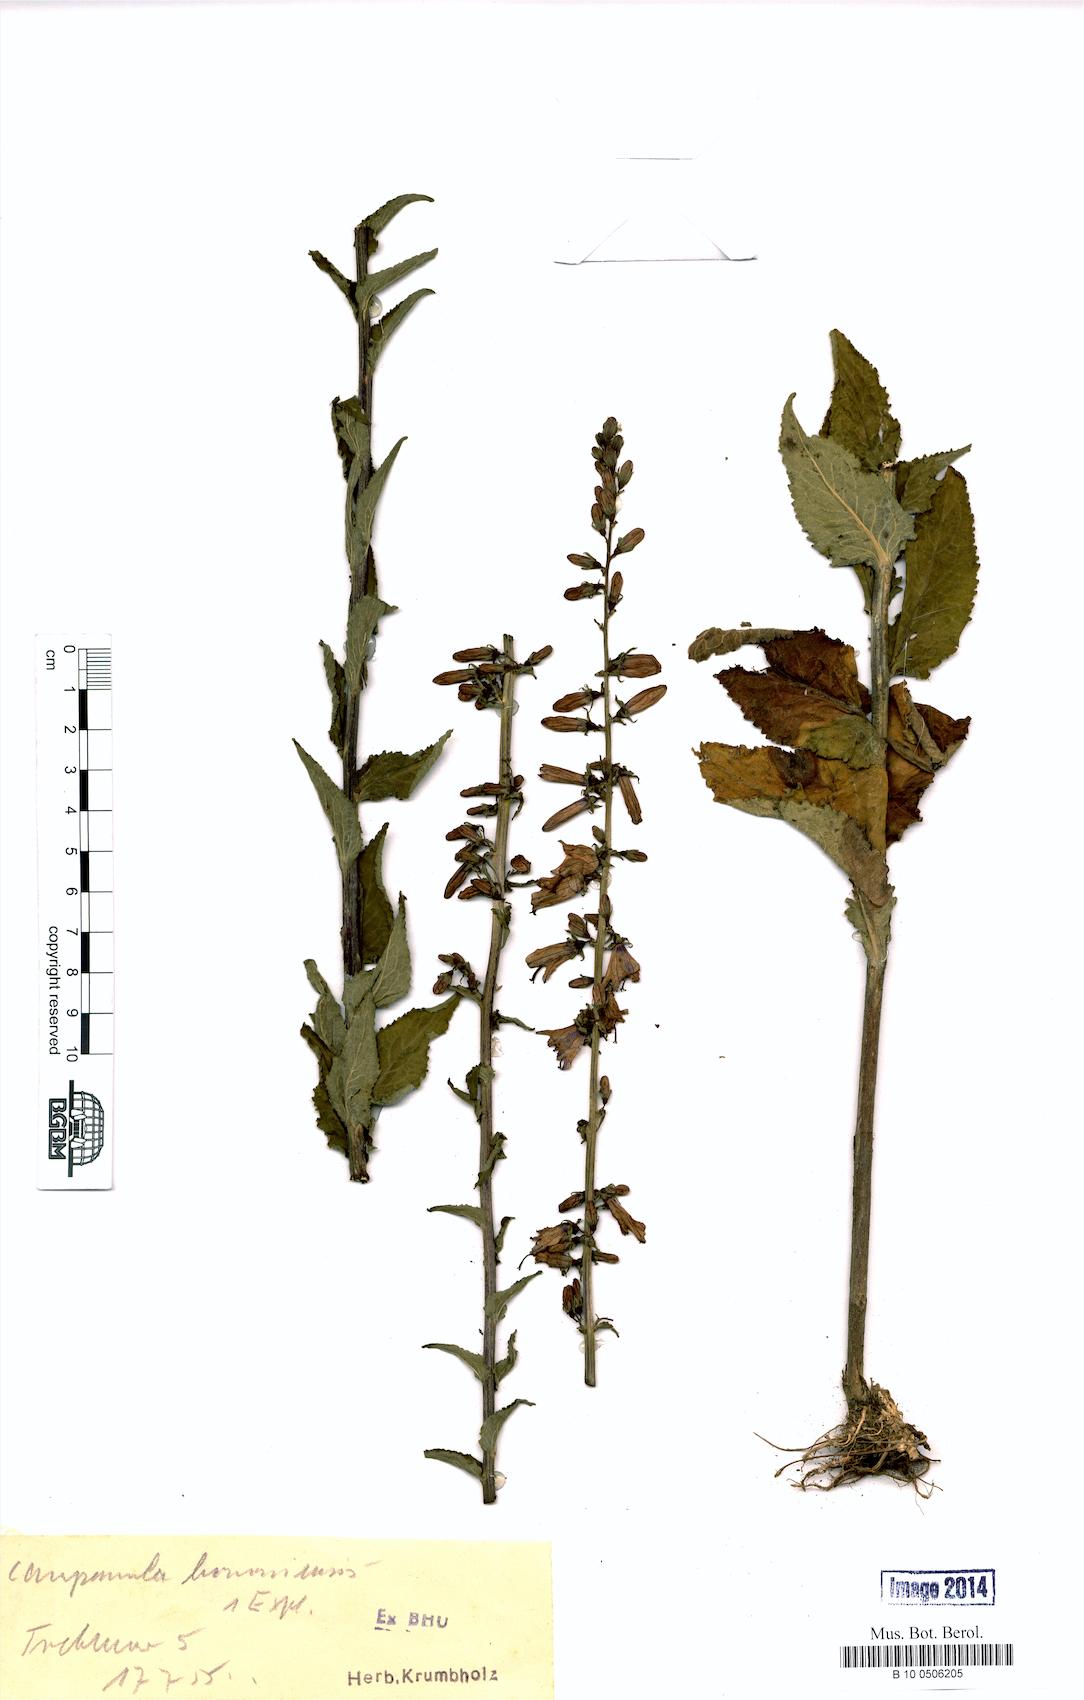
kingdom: Plantae
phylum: Tracheophyta
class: Magnoliopsida
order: Asterales
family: Campanulaceae
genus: Campanula
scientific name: Campanula bononiensis
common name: Pale bellflower
